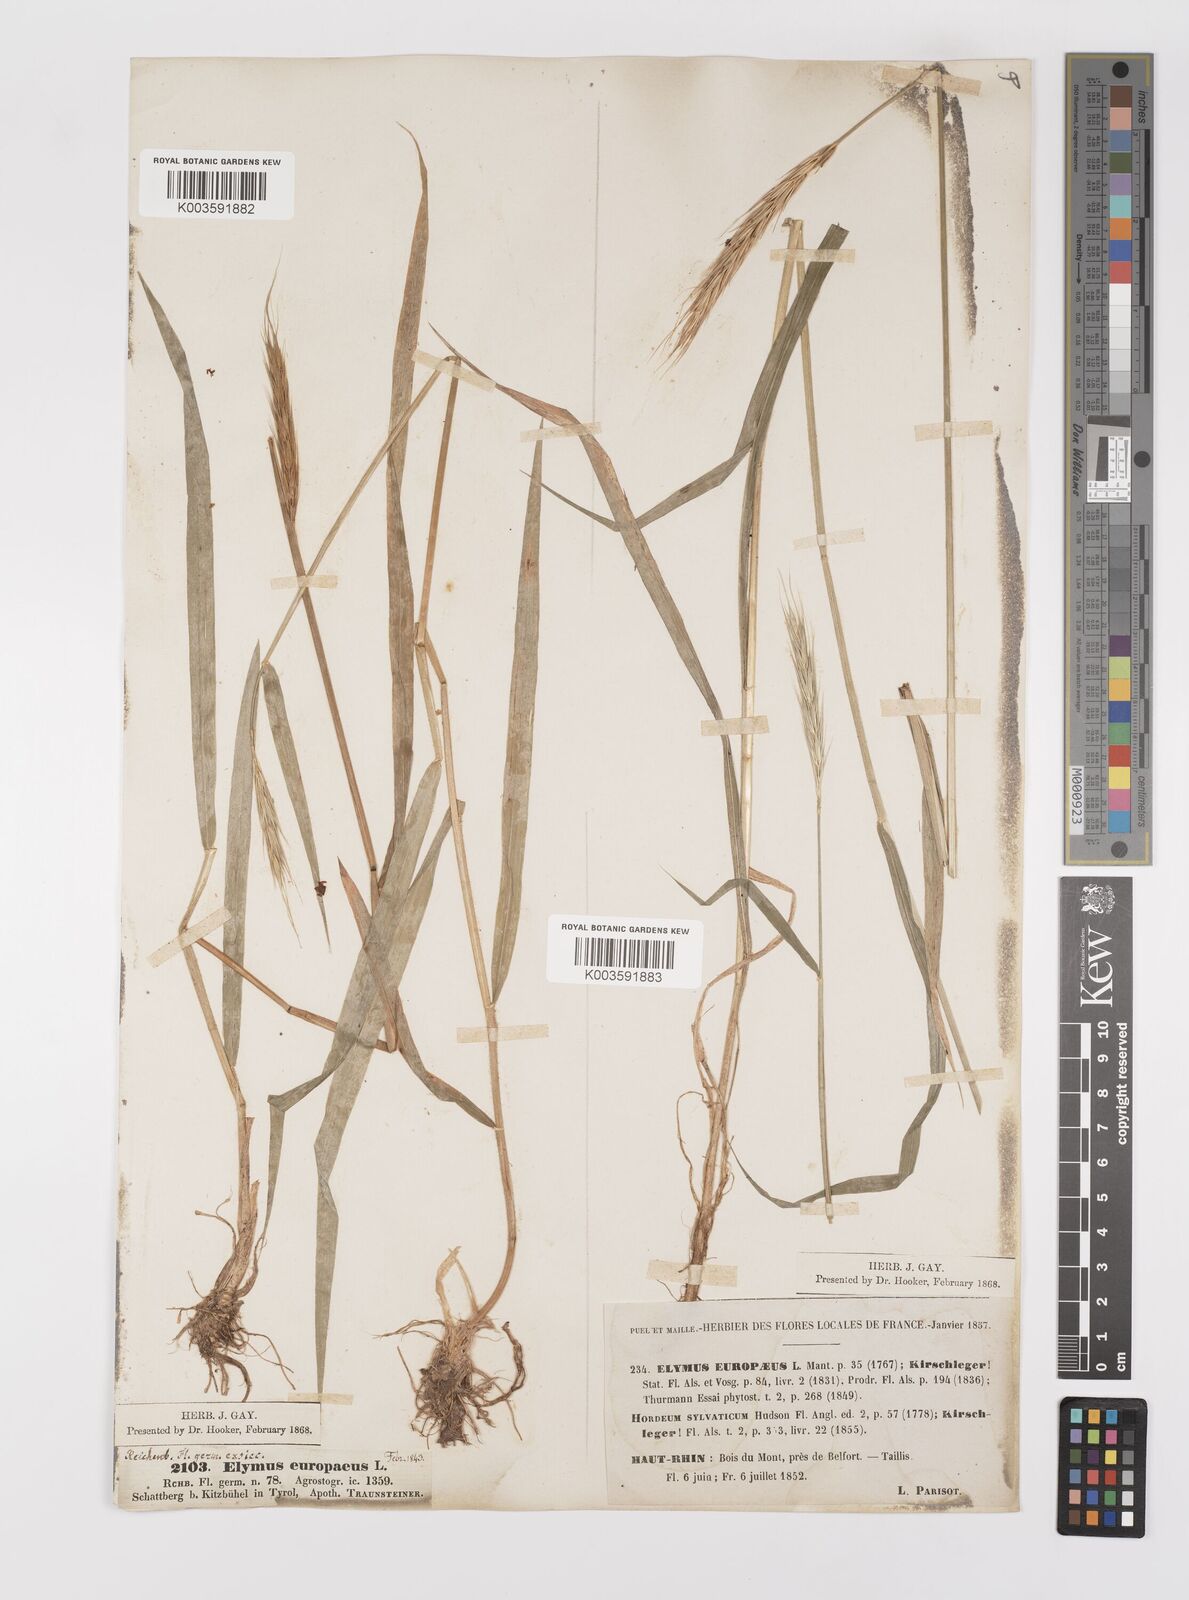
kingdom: Plantae
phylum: Tracheophyta
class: Liliopsida
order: Poales
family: Poaceae
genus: Hordelymus
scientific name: Hordelymus europaeus
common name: Wood-barley
